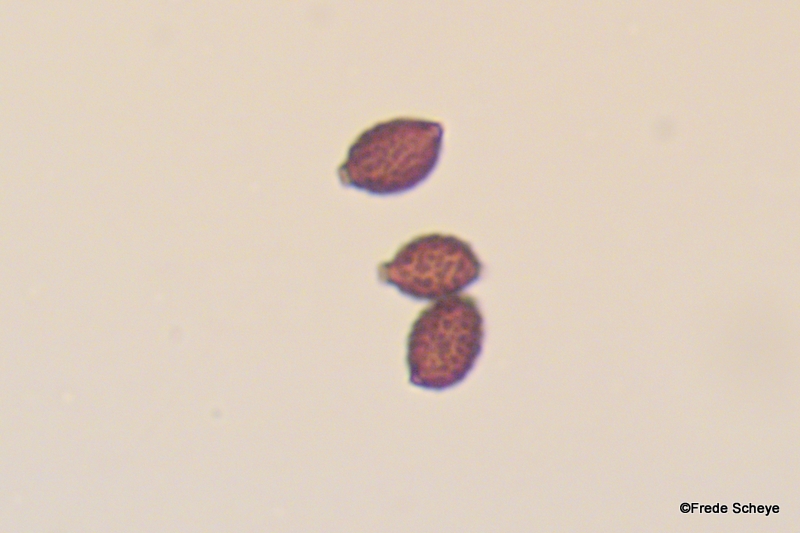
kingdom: Fungi
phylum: Basidiomycota
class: Agaricomycetes
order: Agaricales
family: Psathyrellaceae
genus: Lacrymaria
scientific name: Lacrymaria lacrymabunda
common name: grædende mørkhat
